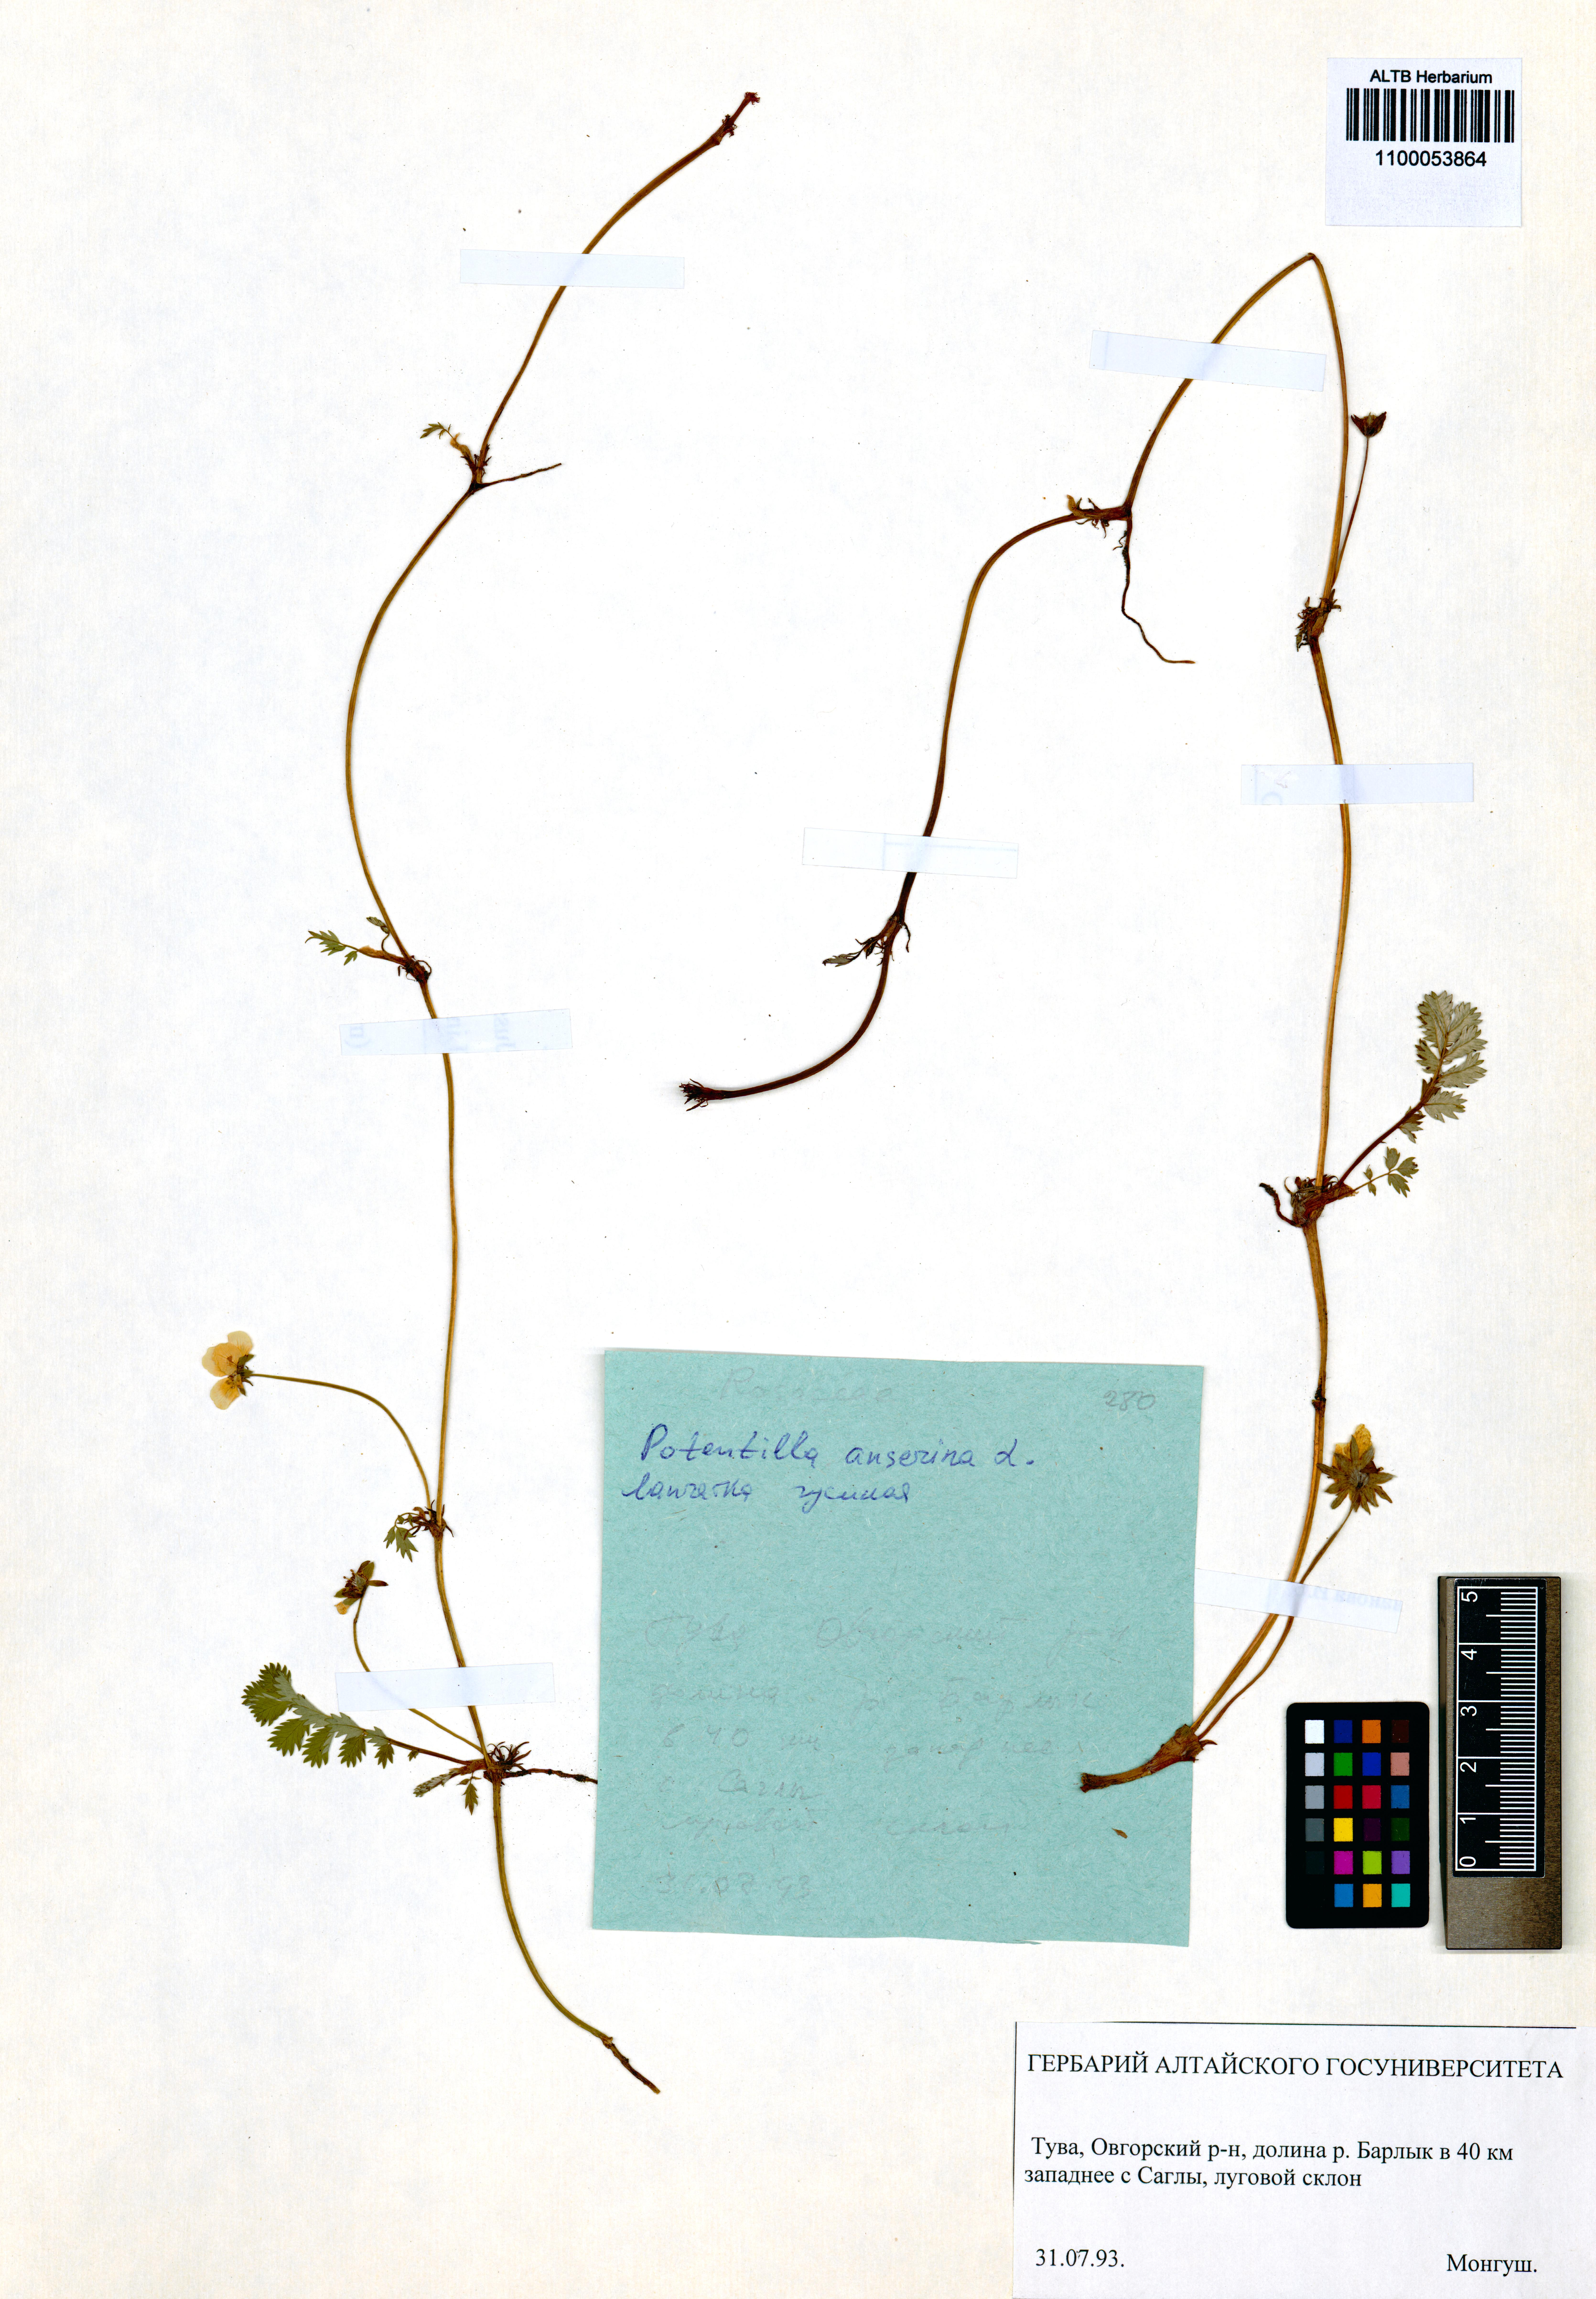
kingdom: Plantae
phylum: Tracheophyta
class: Magnoliopsida
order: Rosales
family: Rosaceae
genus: Argentina
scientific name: Argentina anserina
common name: Common silverweed
